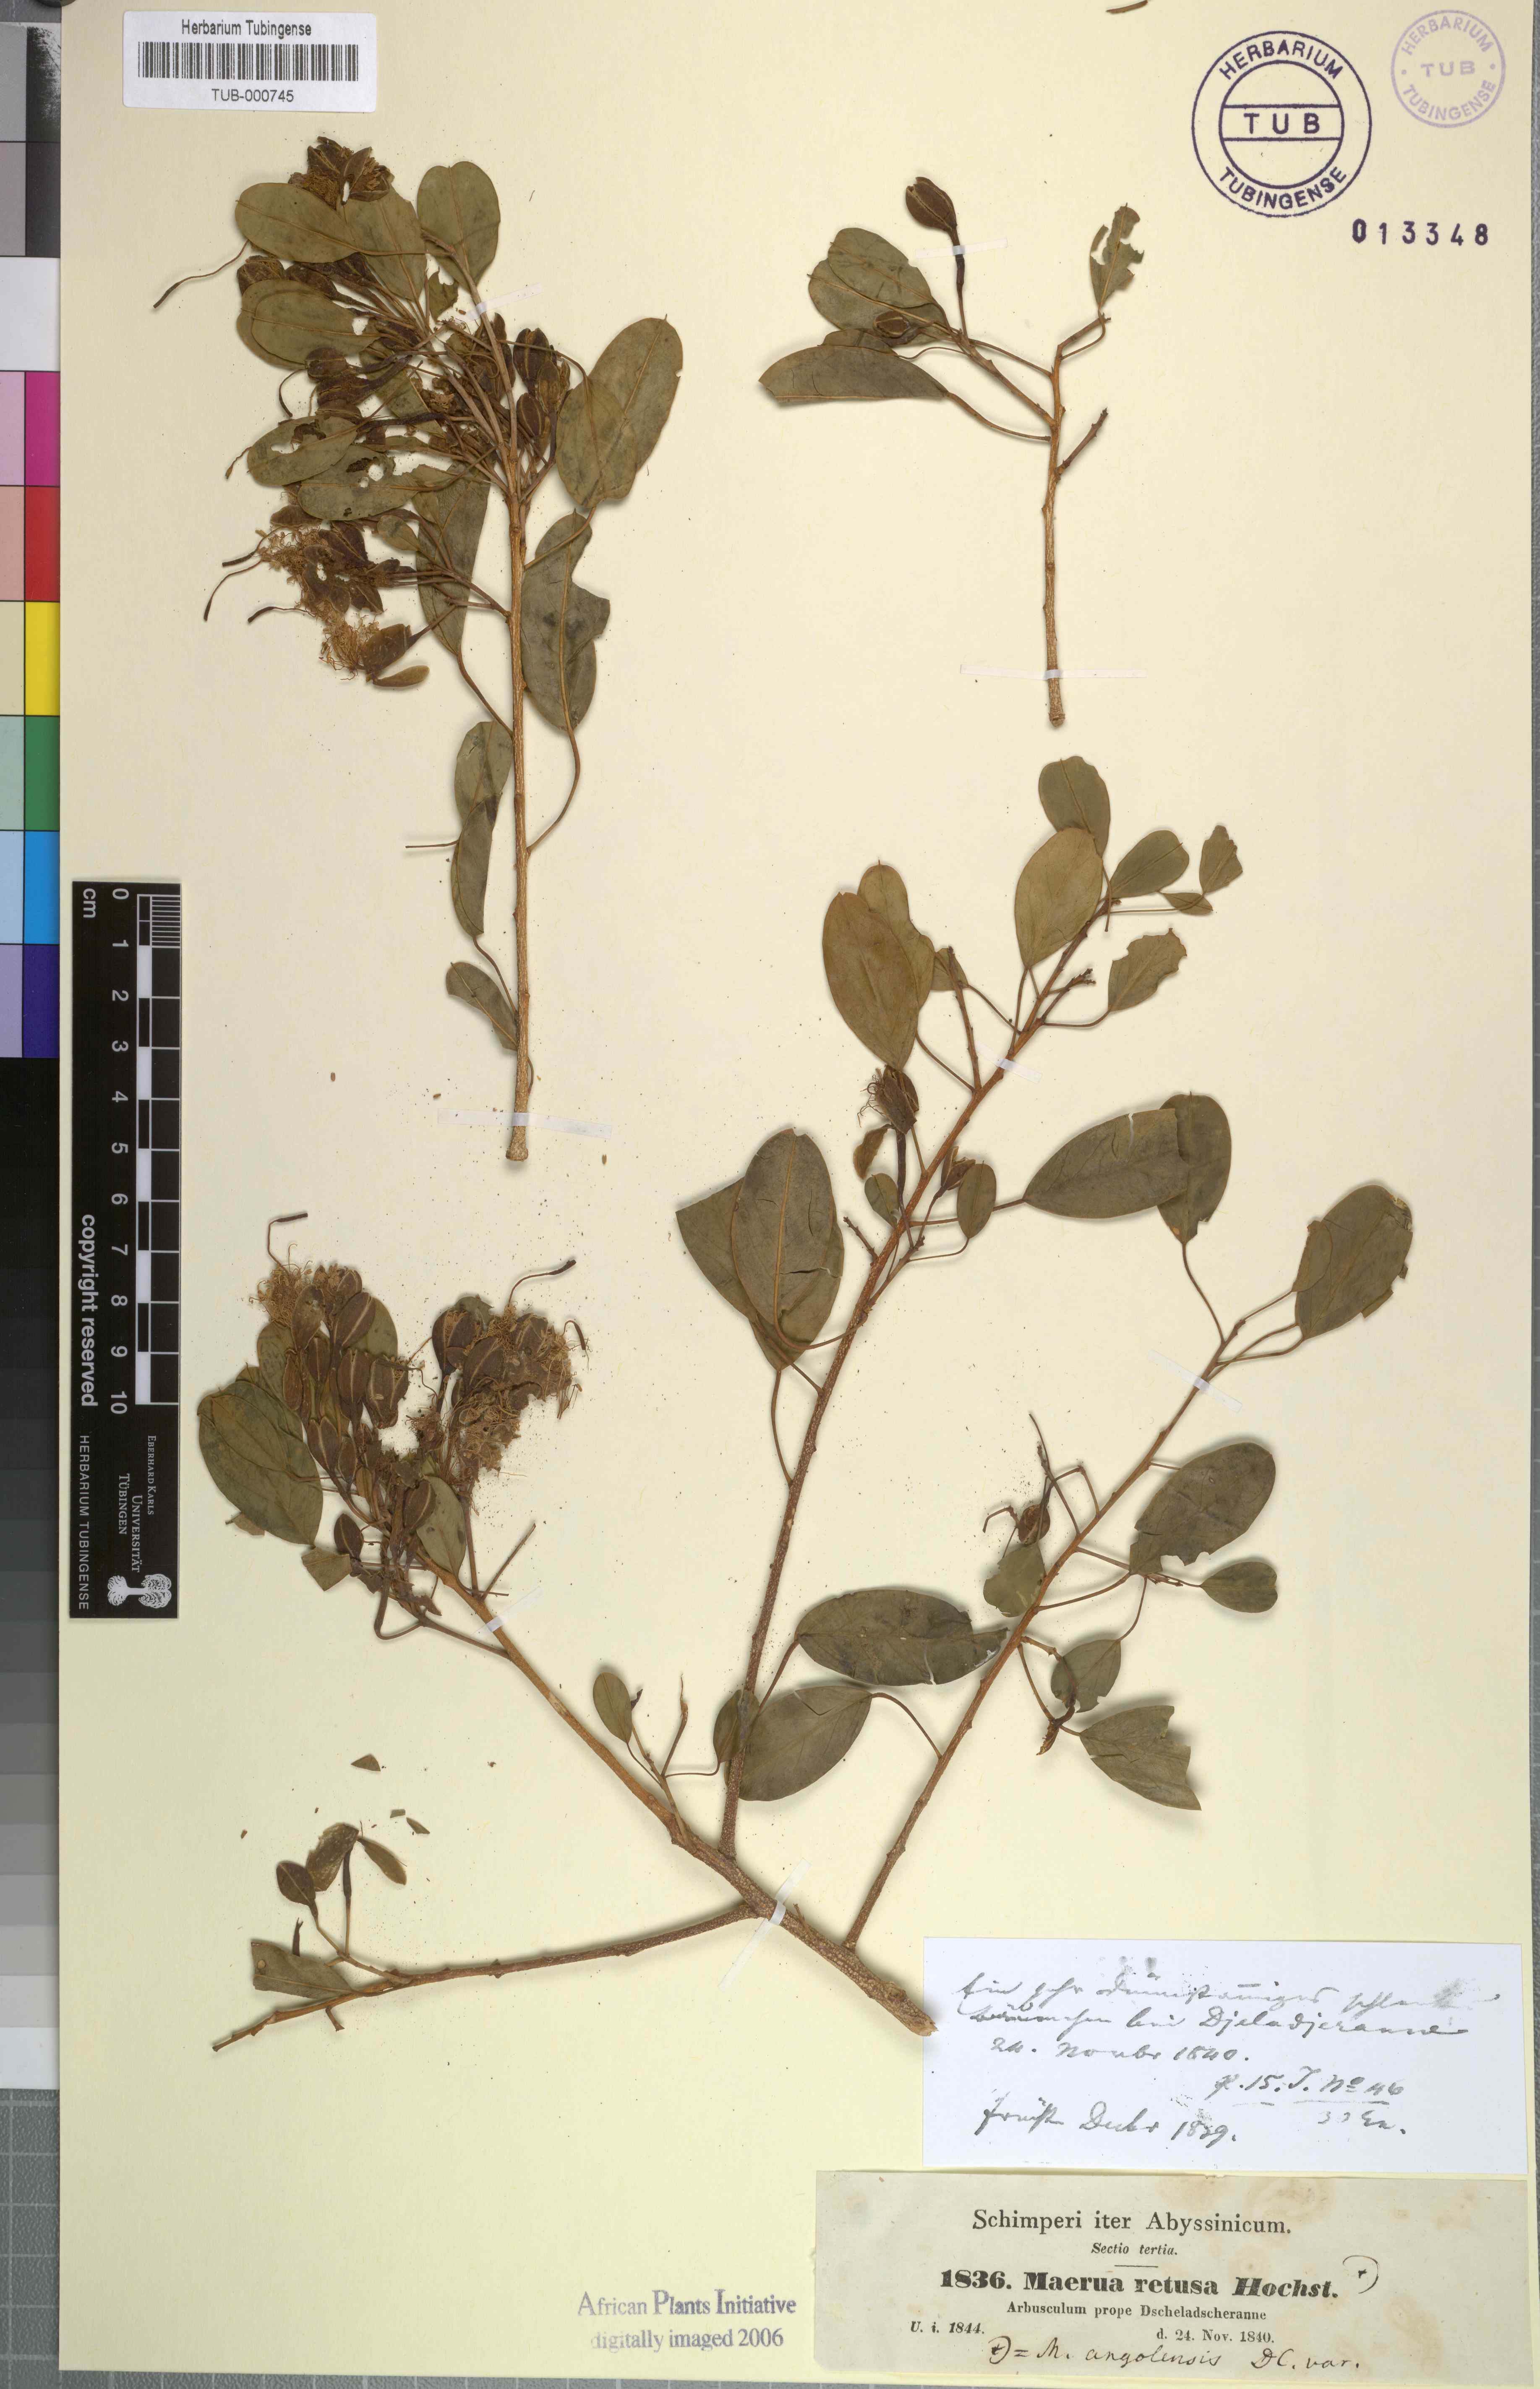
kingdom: Plantae
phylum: Tracheophyta
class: Magnoliopsida
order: Brassicales
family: Capparaceae
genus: Maerua
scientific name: Maerua angolensis
